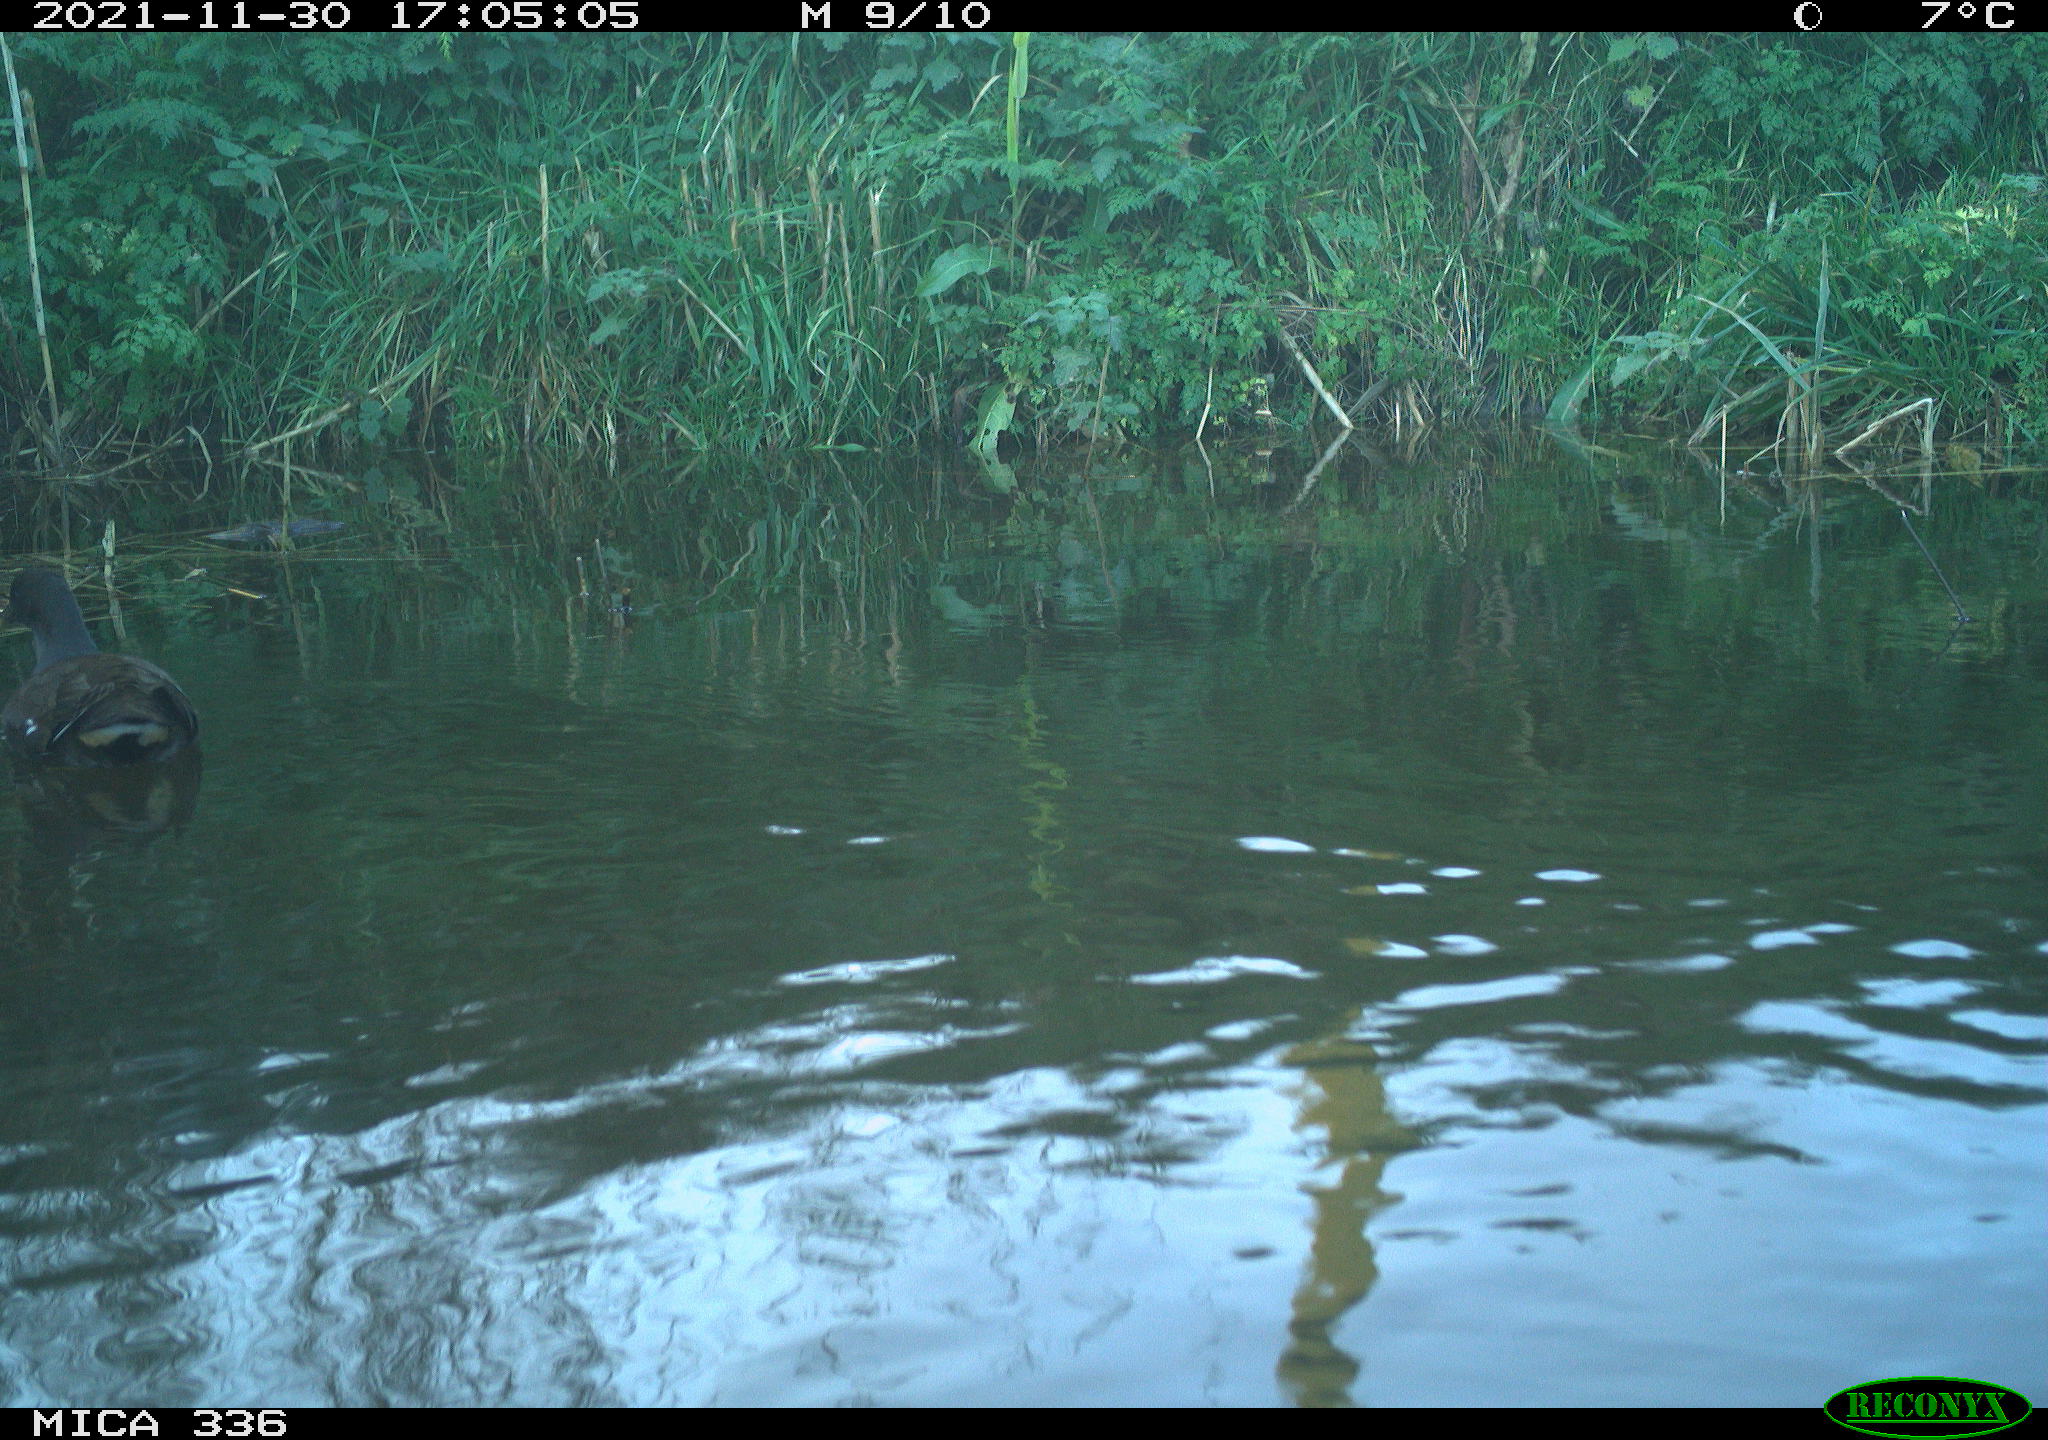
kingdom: Animalia
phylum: Chordata
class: Aves
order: Gruiformes
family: Rallidae
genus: Gallinula
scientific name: Gallinula chloropus
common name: Common moorhen
